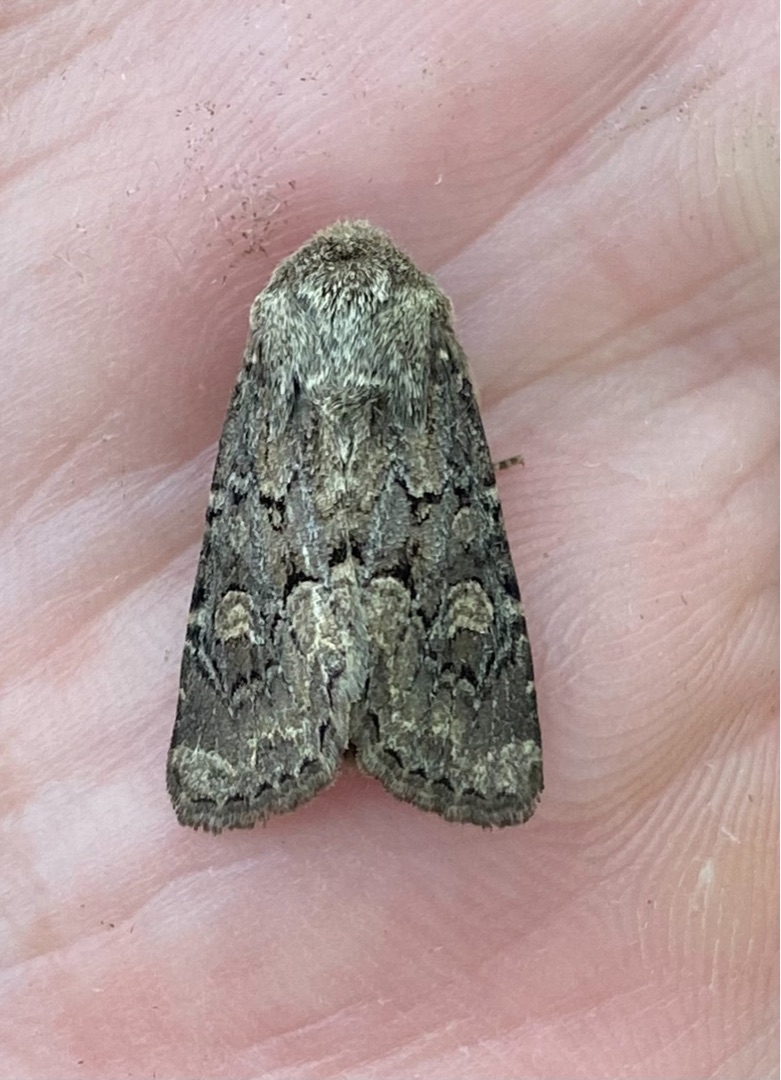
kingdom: Animalia
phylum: Arthropoda
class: Insecta
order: Lepidoptera
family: Noctuidae
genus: Luperina
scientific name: Luperina testacea
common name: Frøgræsugle
